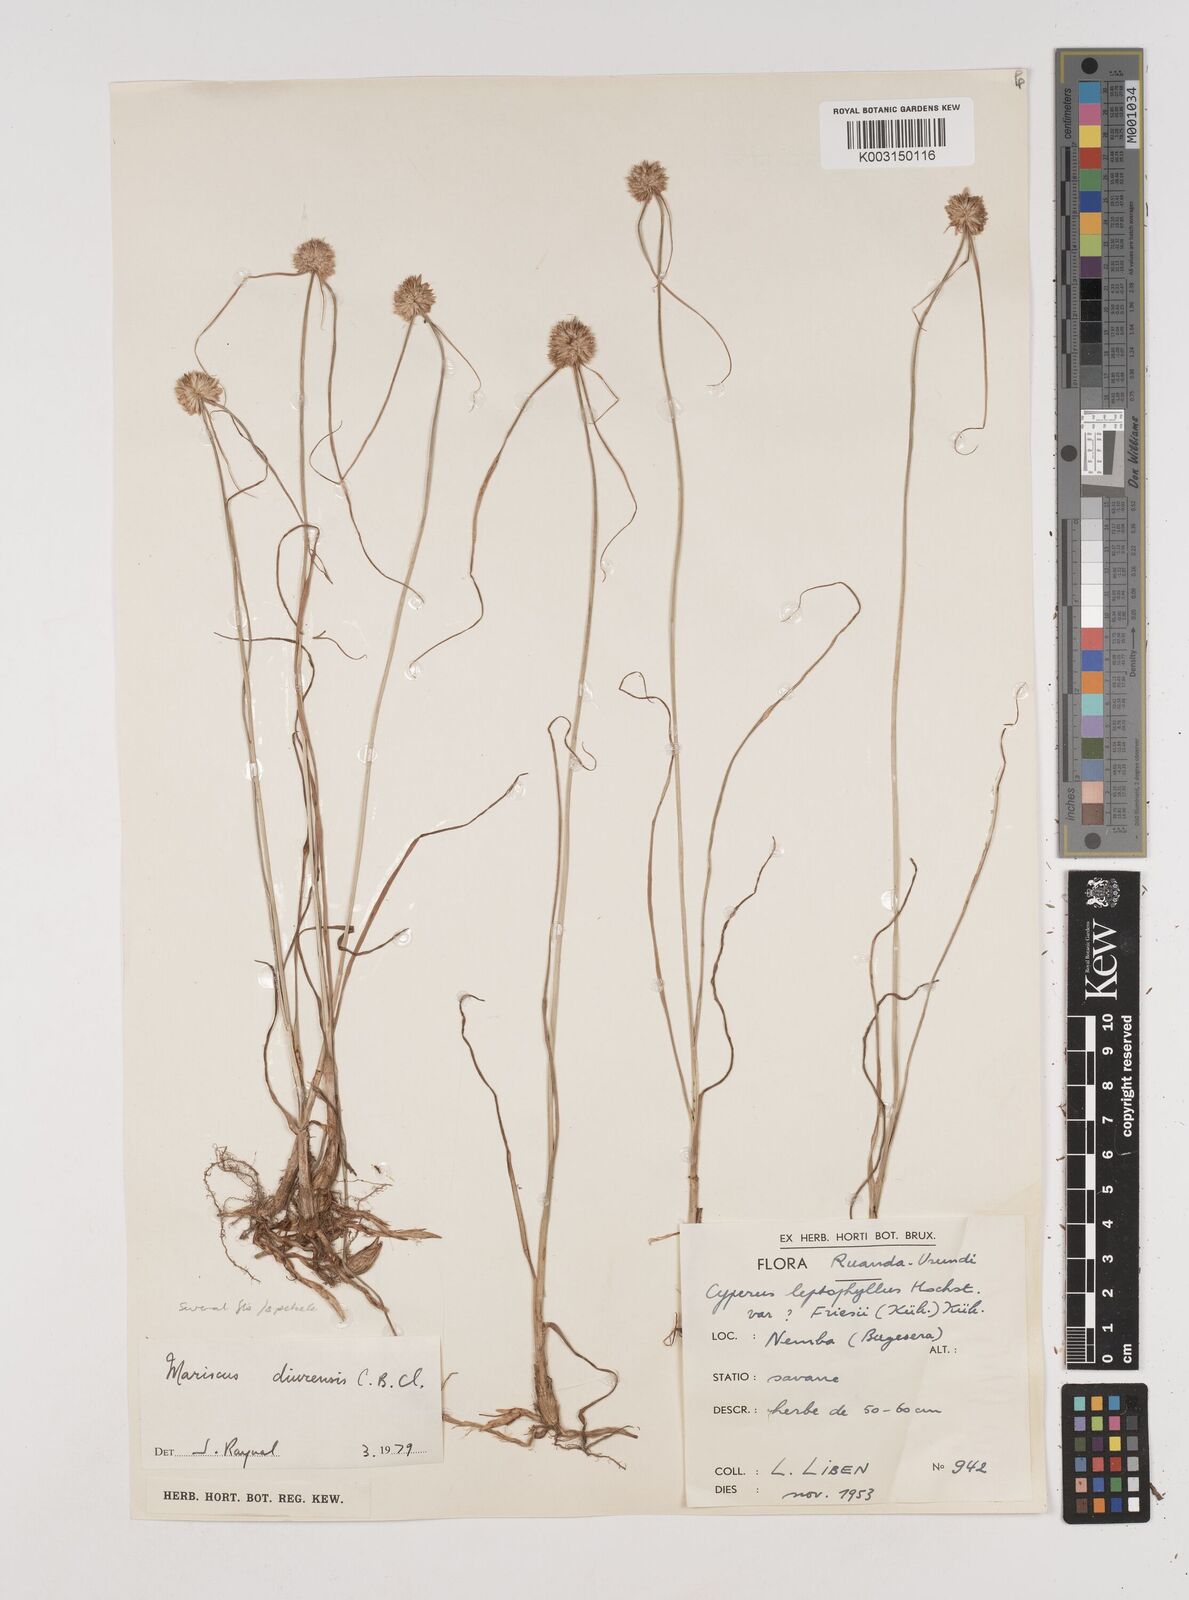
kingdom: Plantae
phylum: Tracheophyta
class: Liliopsida
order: Poales
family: Cyperaceae
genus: Cyperus
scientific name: Cyperus diurensis
